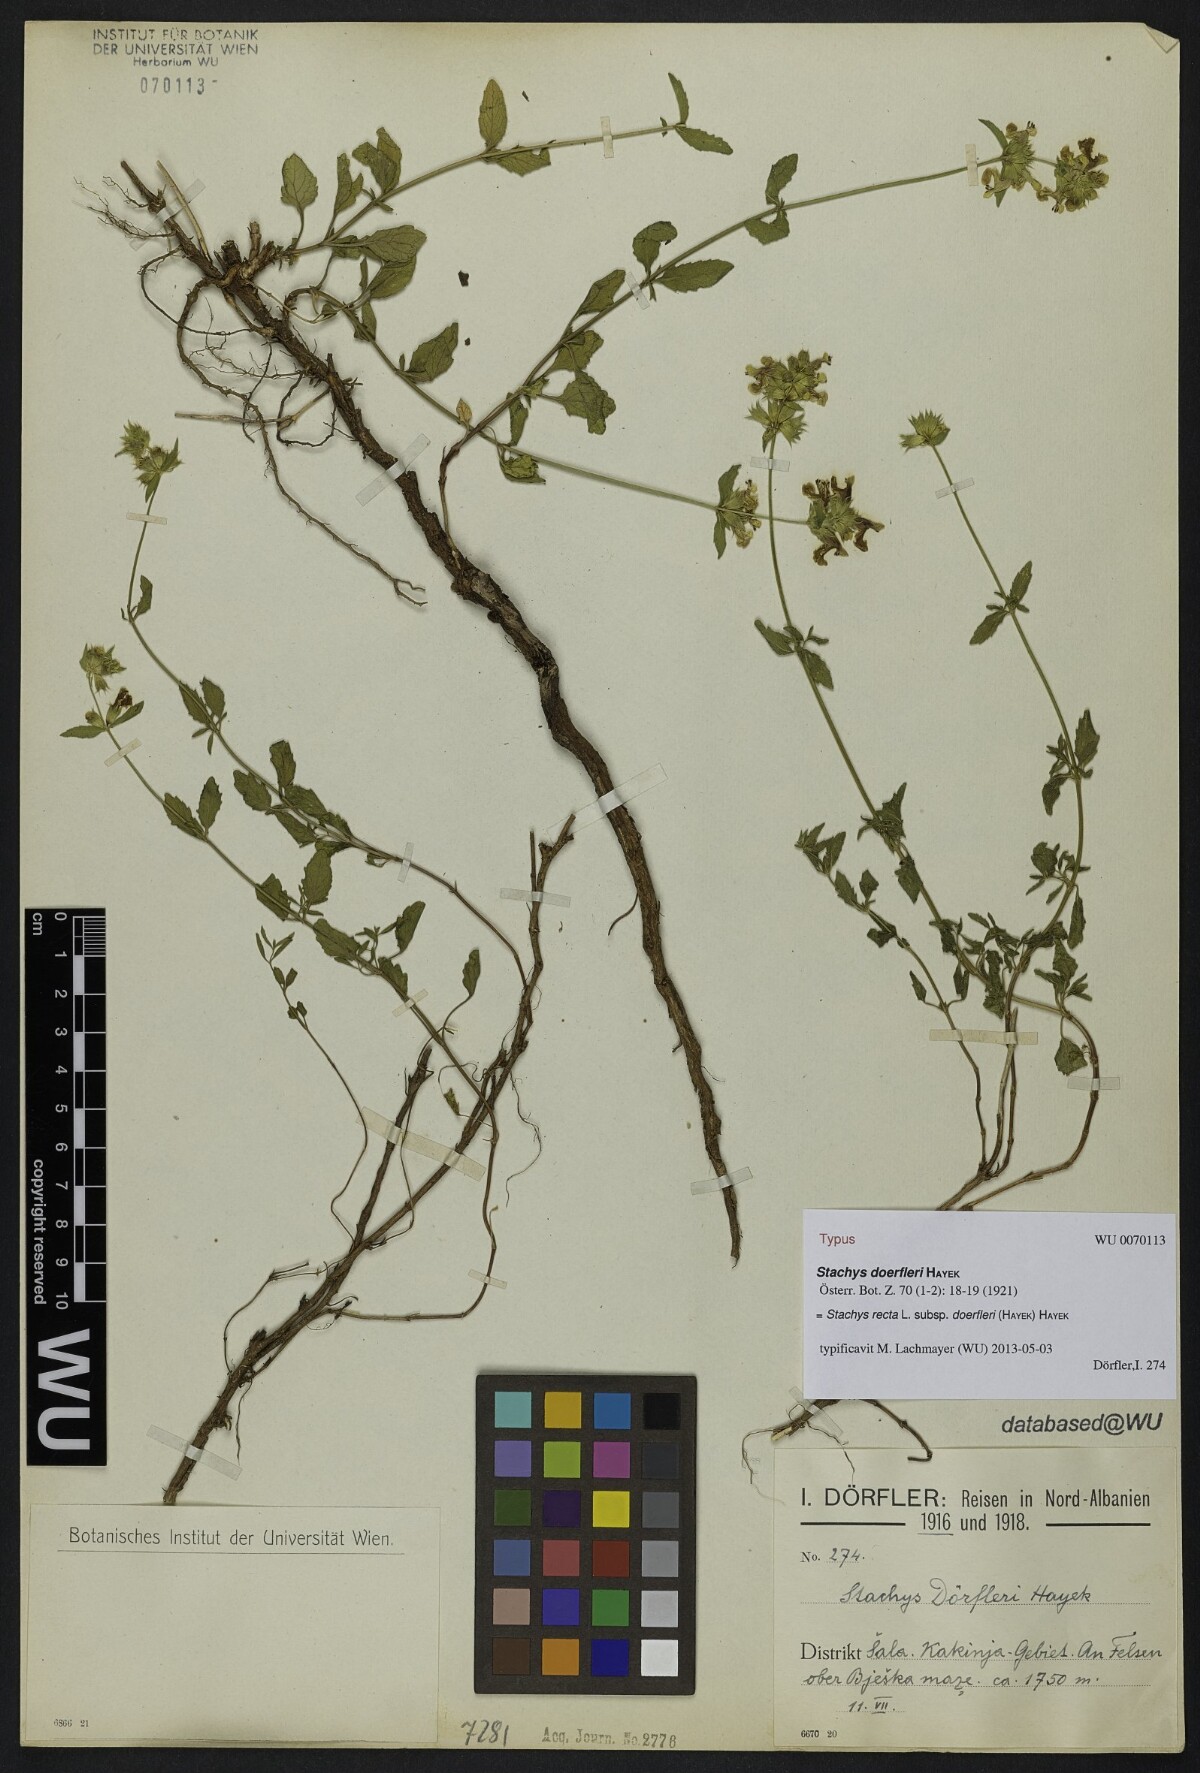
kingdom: Plantae
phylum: Tracheophyta
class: Magnoliopsida
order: Lamiales
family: Lamiaceae
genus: Stachys
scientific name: Stachys recta
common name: Perennial yellow-woundwort
